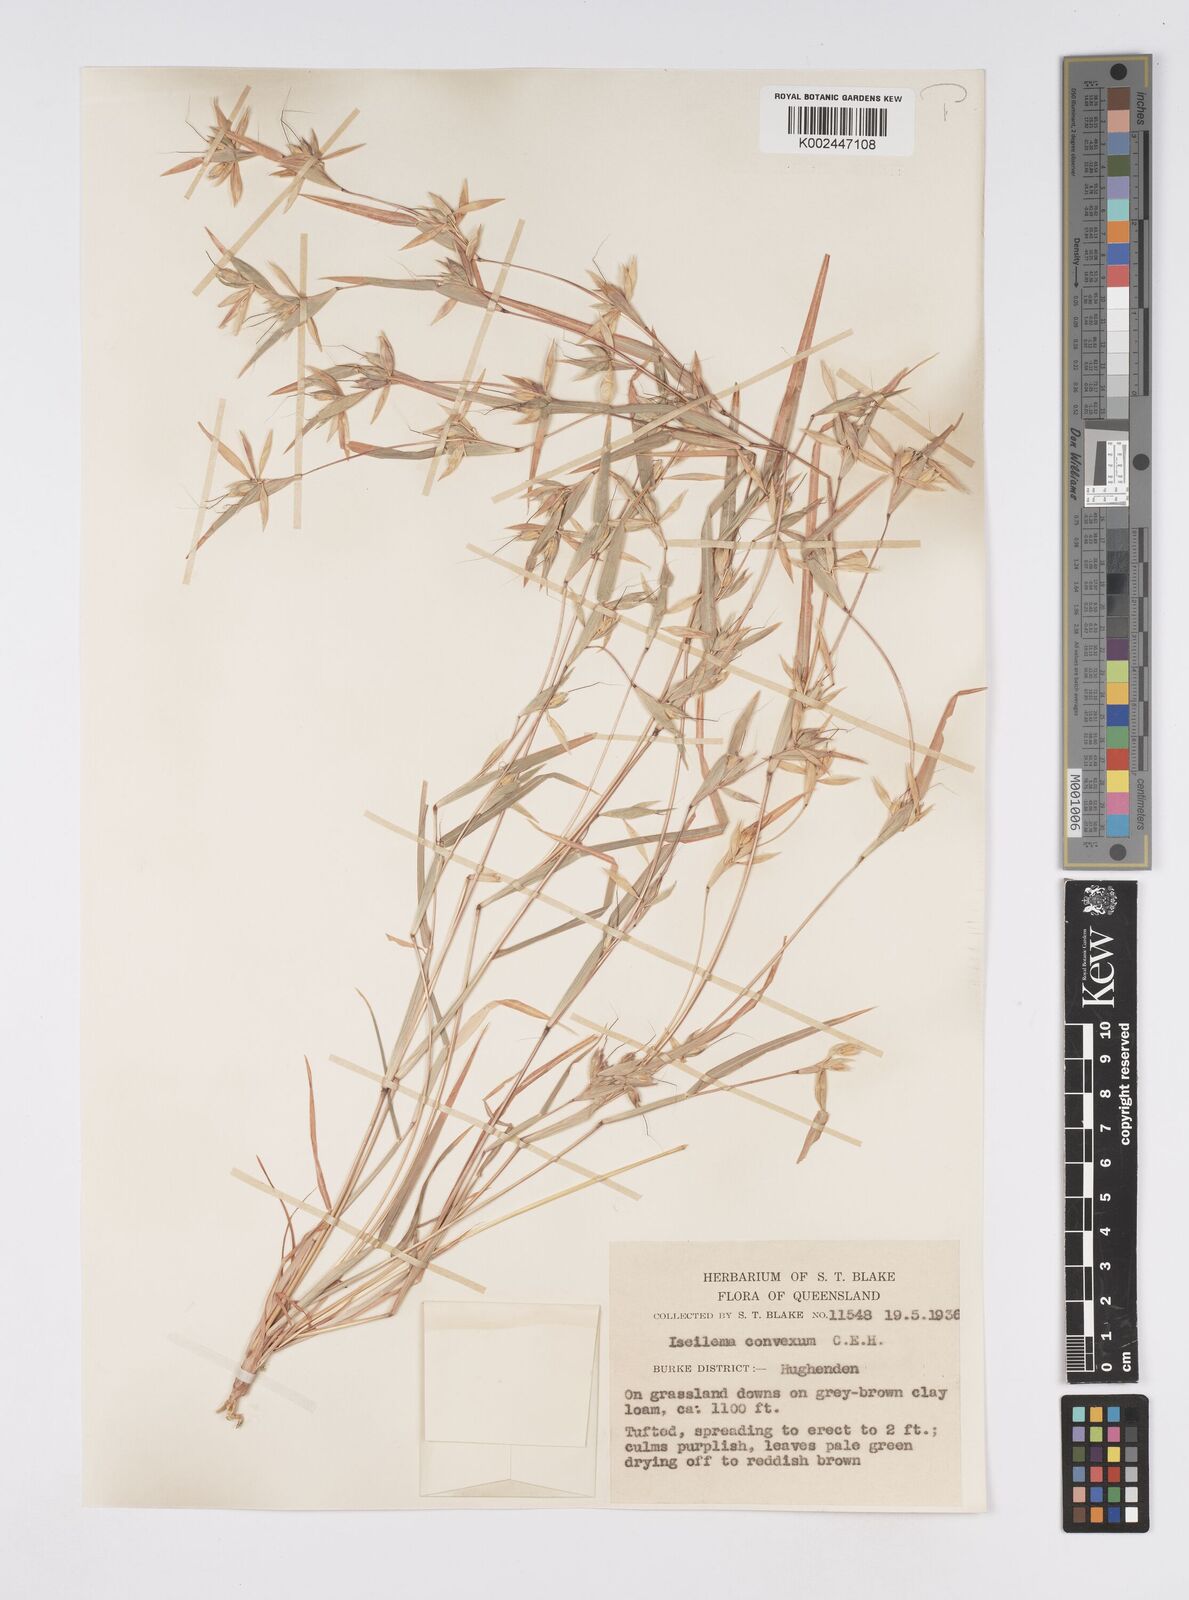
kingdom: Plantae
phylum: Tracheophyta
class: Liliopsida
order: Poales
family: Poaceae
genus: Iseilema
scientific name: Iseilema convexum
